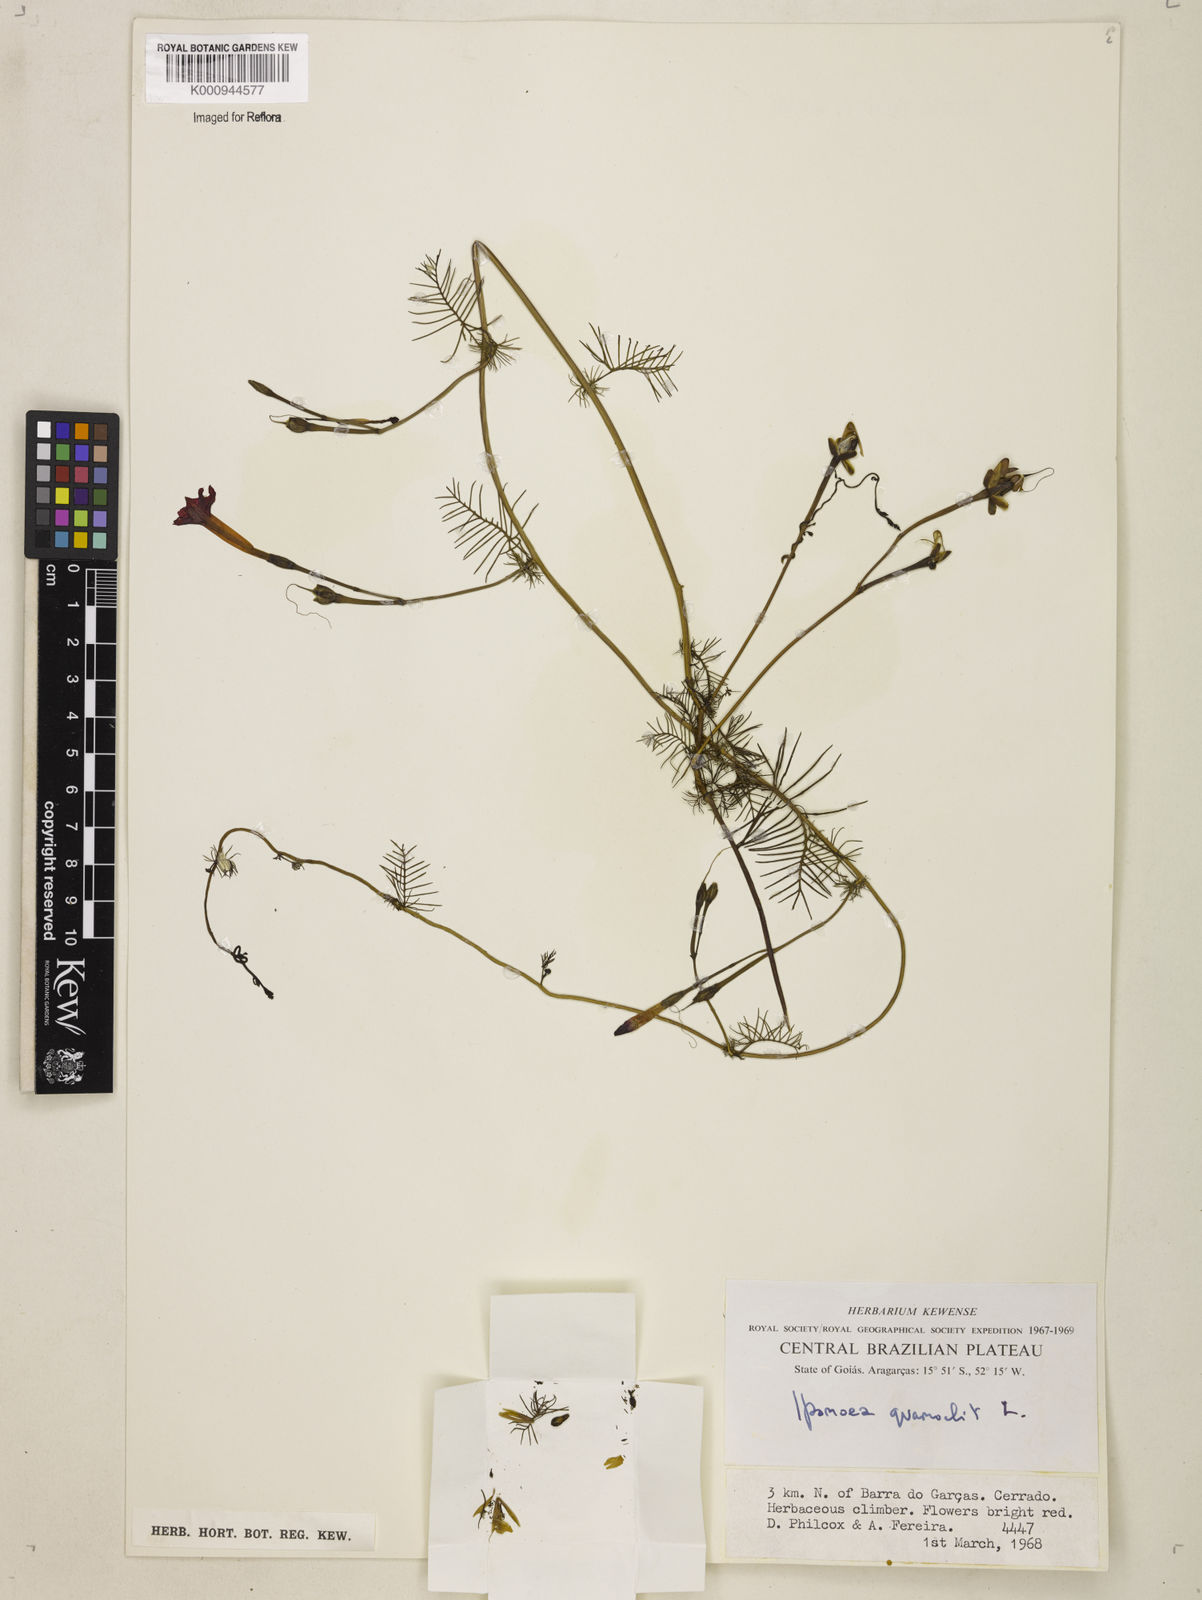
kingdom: Plantae
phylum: Tracheophyta
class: Magnoliopsida
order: Solanales
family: Convolvulaceae
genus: Ipomoea
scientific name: Ipomoea quamoclit
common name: Cypress vine
